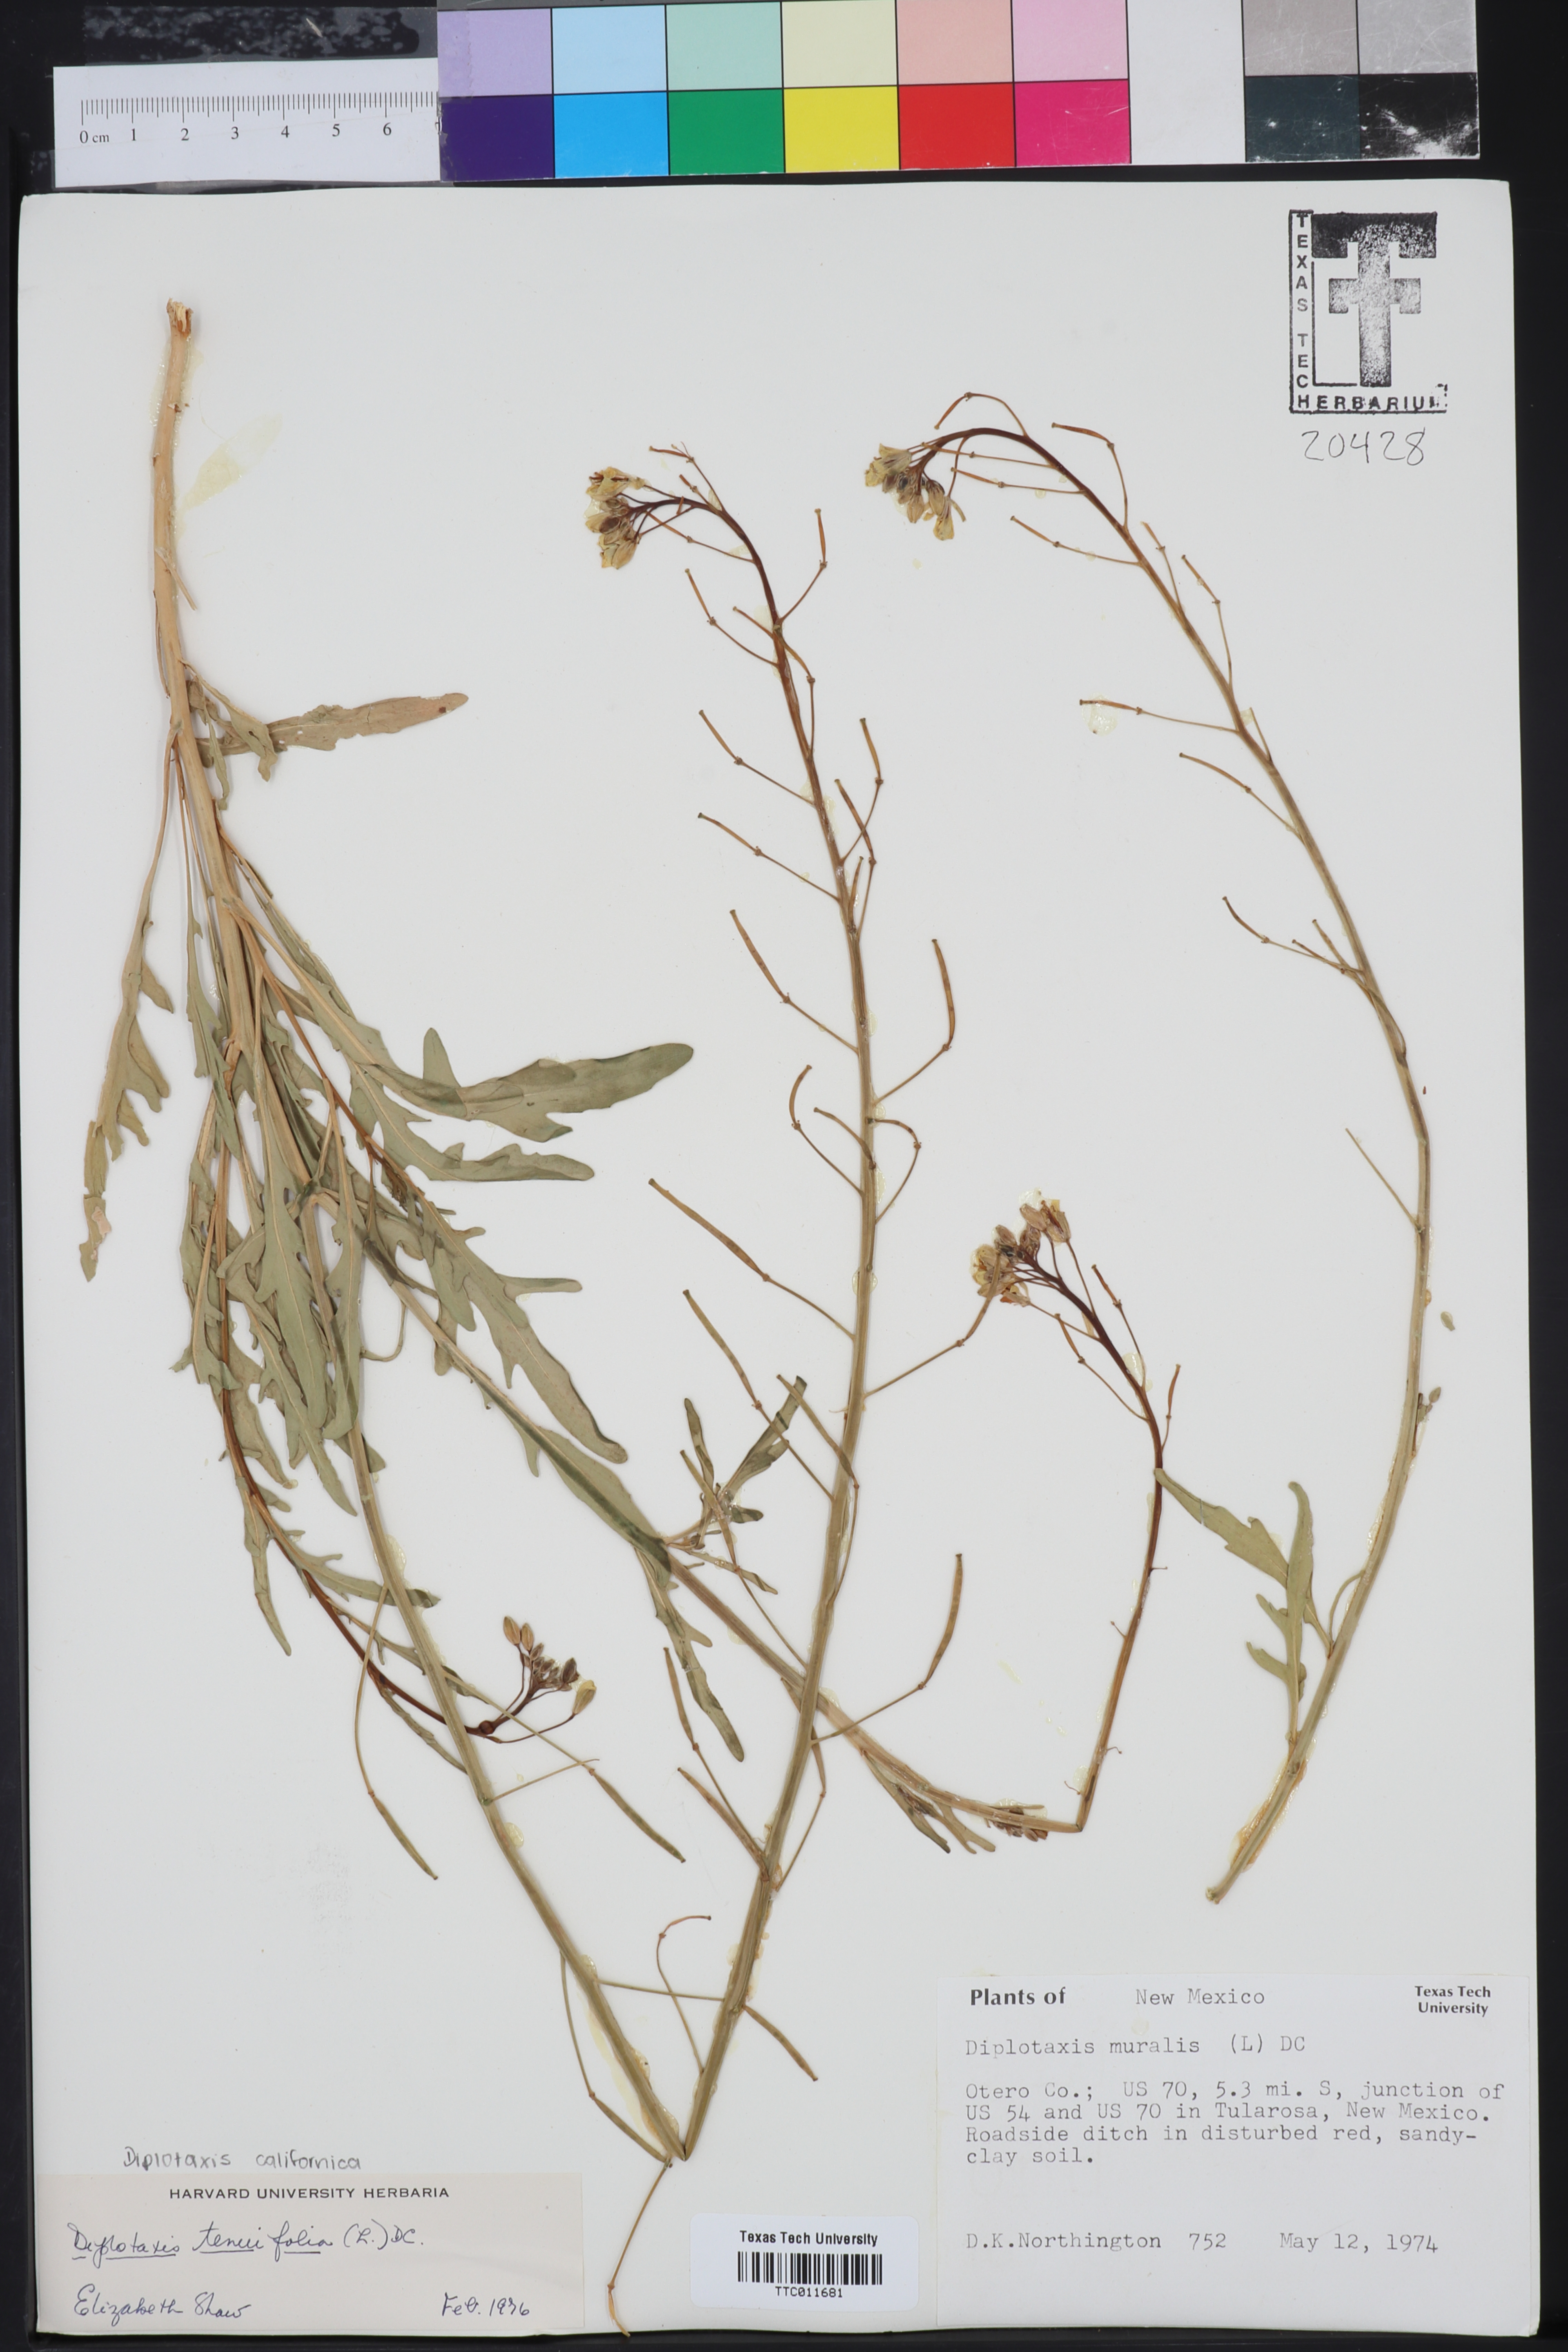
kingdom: Plantae
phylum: Tracheophyta
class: Magnoliopsida
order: Brassicales
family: Brassicaceae
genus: Diplotaxis
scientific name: Diplotaxis muralis
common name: Annual wall-rocket
